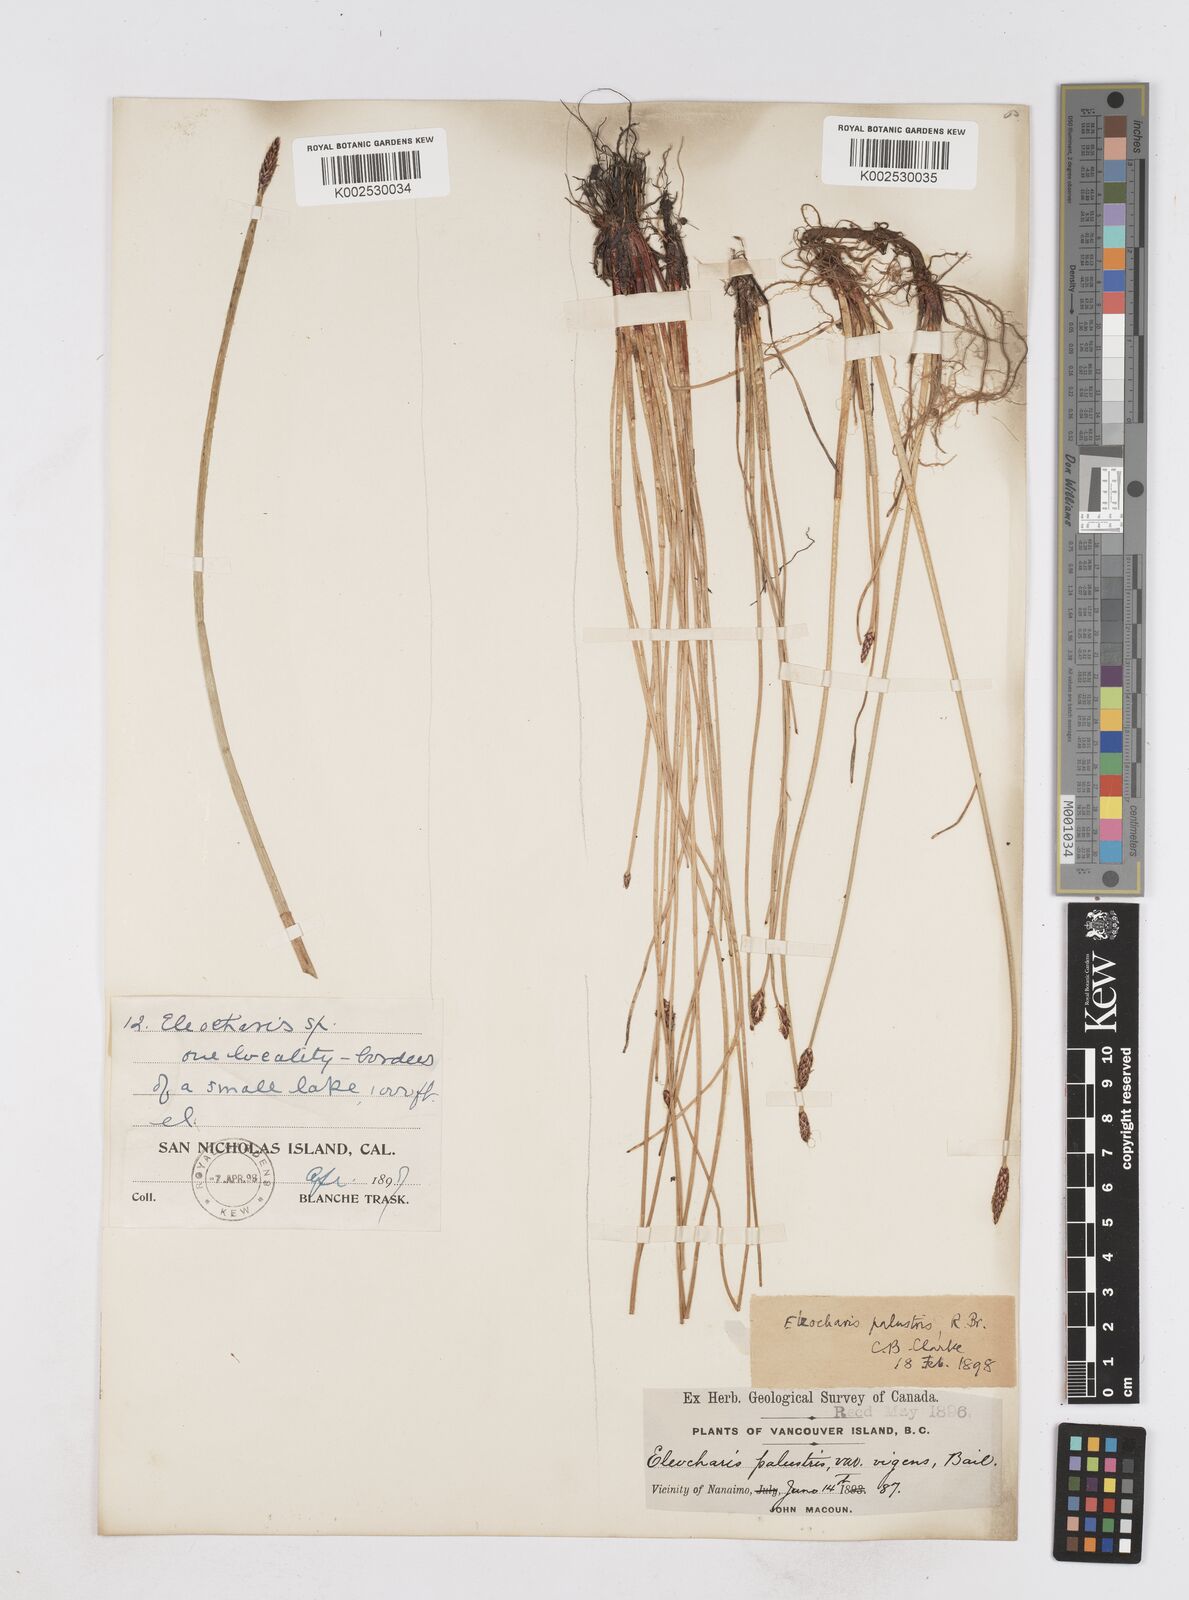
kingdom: Plantae
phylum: Tracheophyta
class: Liliopsida
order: Poales
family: Cyperaceae
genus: Eleocharis
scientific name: Eleocharis palustris
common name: Common spike-rush
